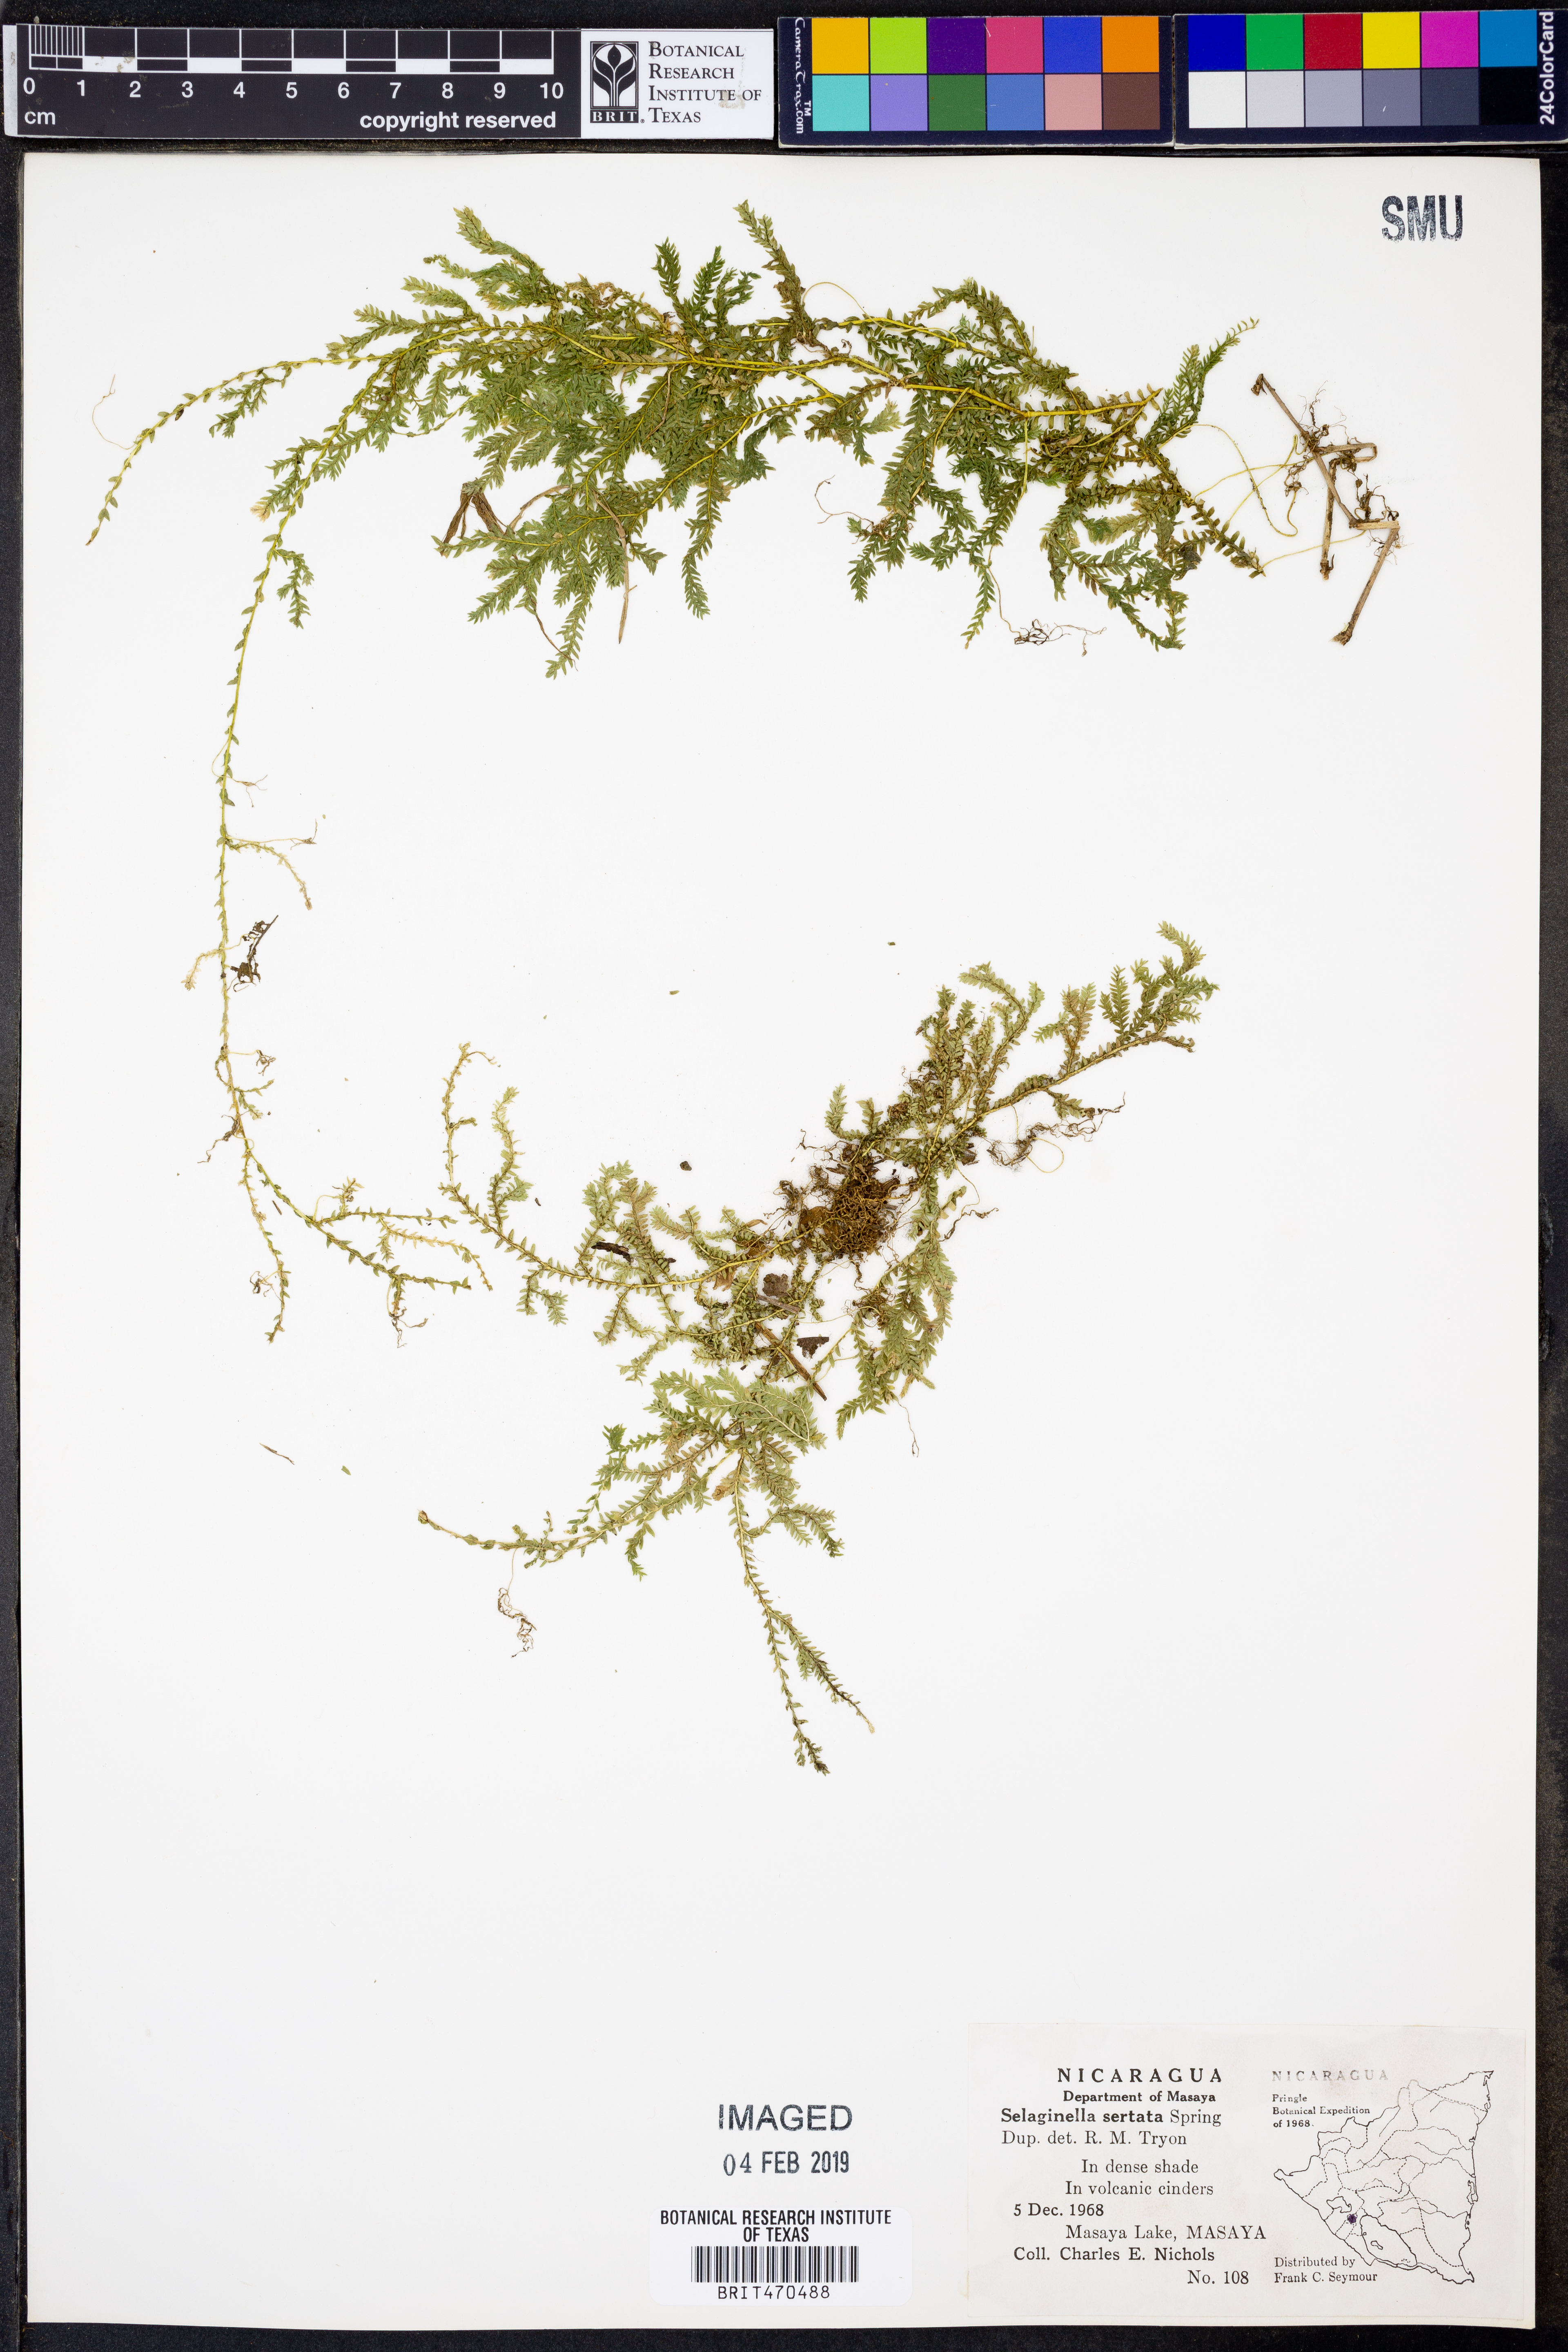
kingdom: Plantae
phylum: Tracheophyta
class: Lycopodiopsida
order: Selaginellales
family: Selaginellaceae
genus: Selaginella
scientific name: Selaginella sertata
